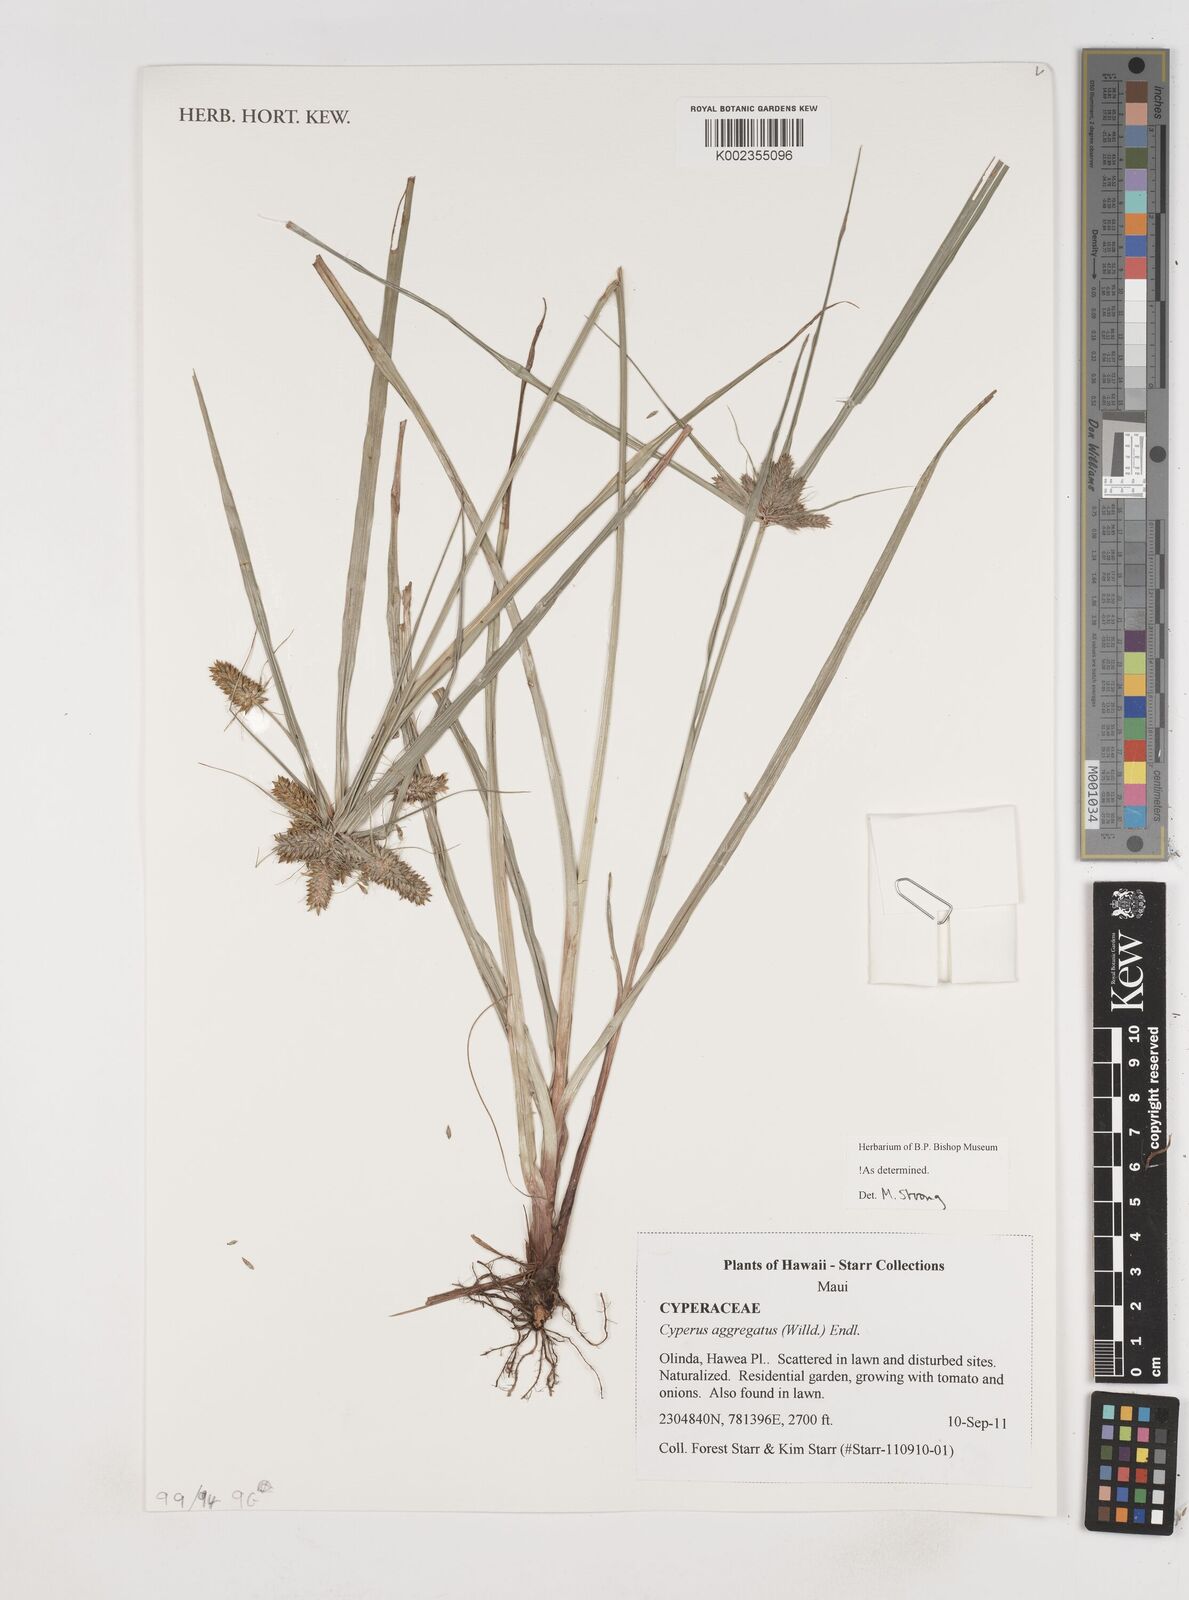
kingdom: Plantae
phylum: Tracheophyta
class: Liliopsida
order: Poales
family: Cyperaceae
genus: Cyperus
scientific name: Cyperus aggregatus
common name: Inflatedscale flatsedge
